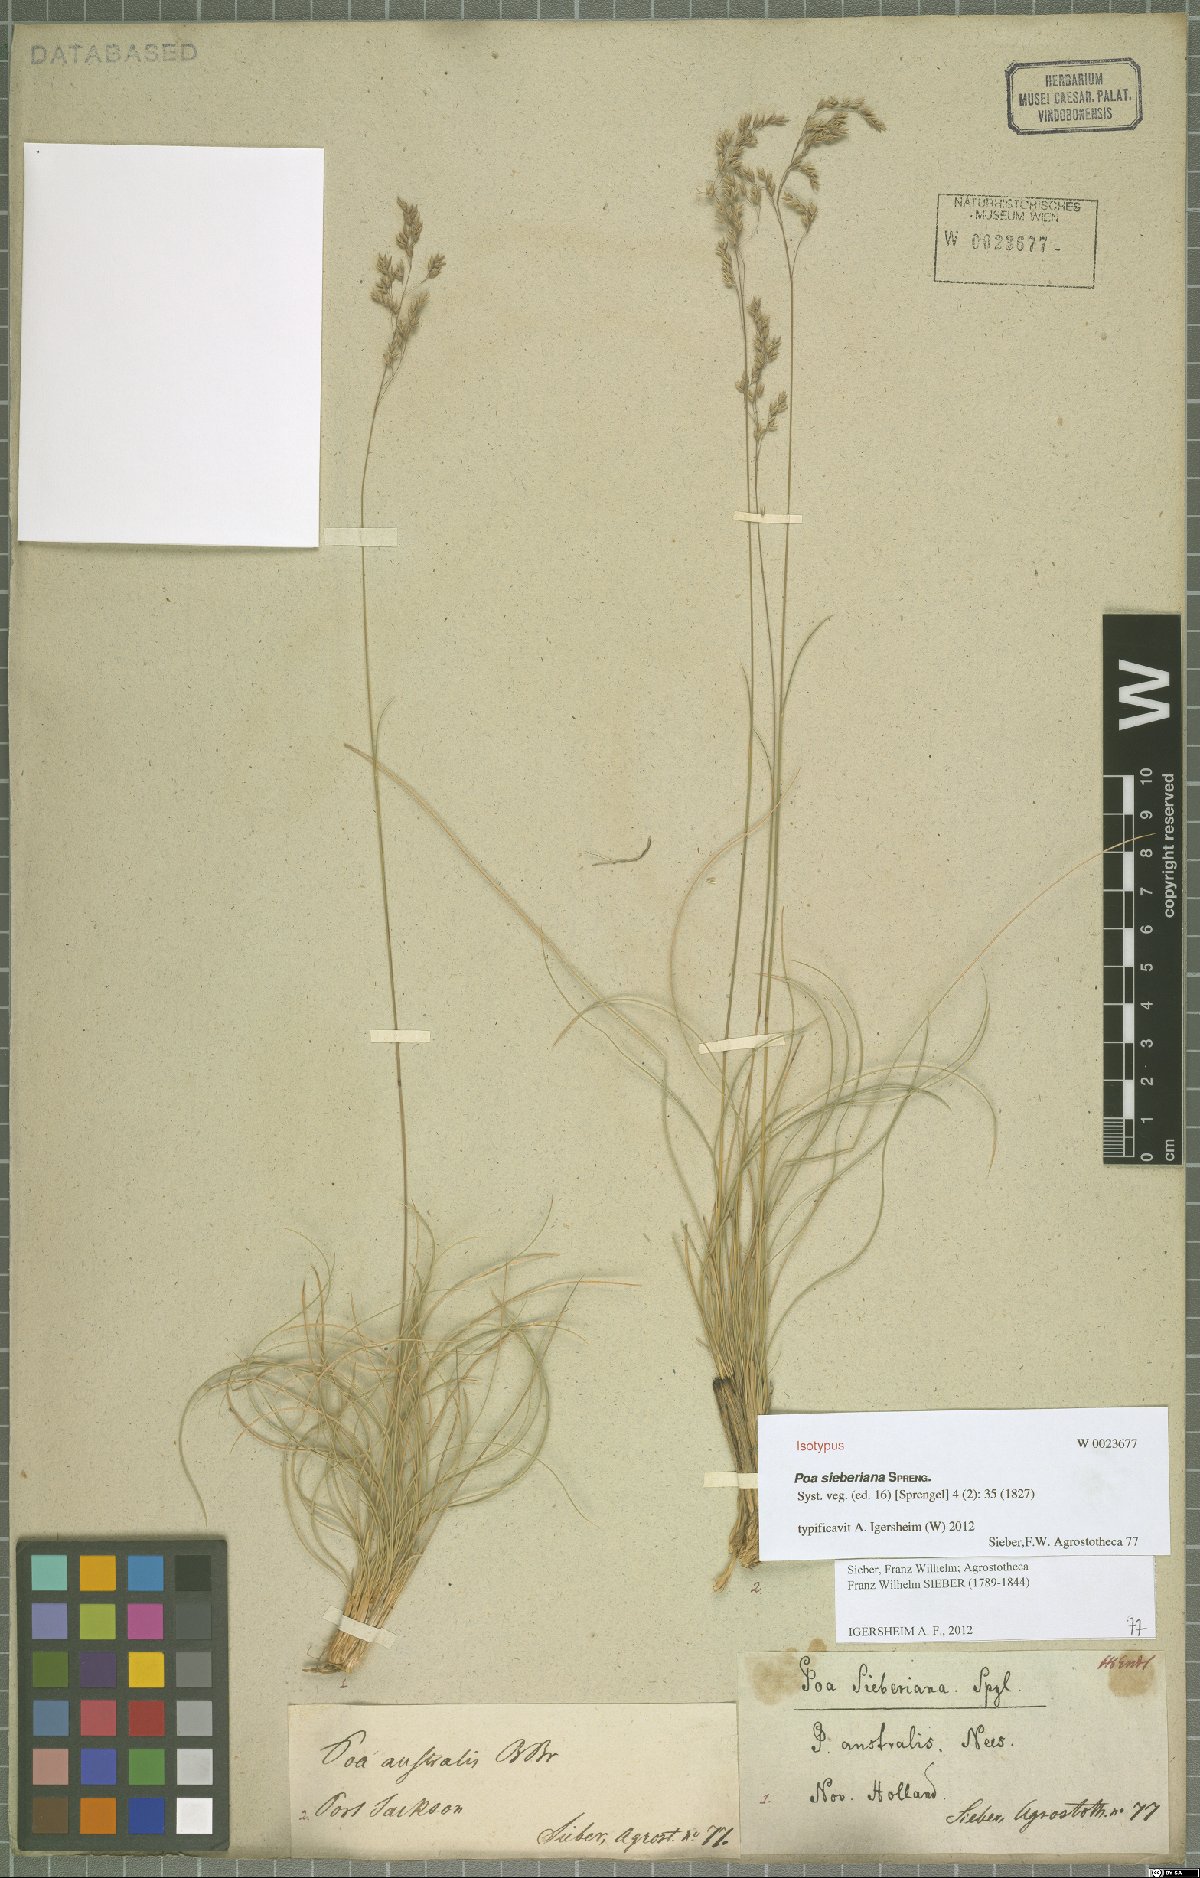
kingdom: Plantae
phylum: Tracheophyta
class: Liliopsida
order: Poales
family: Poaceae
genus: Poa
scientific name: Poa sieberiana
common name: Tussock poa
